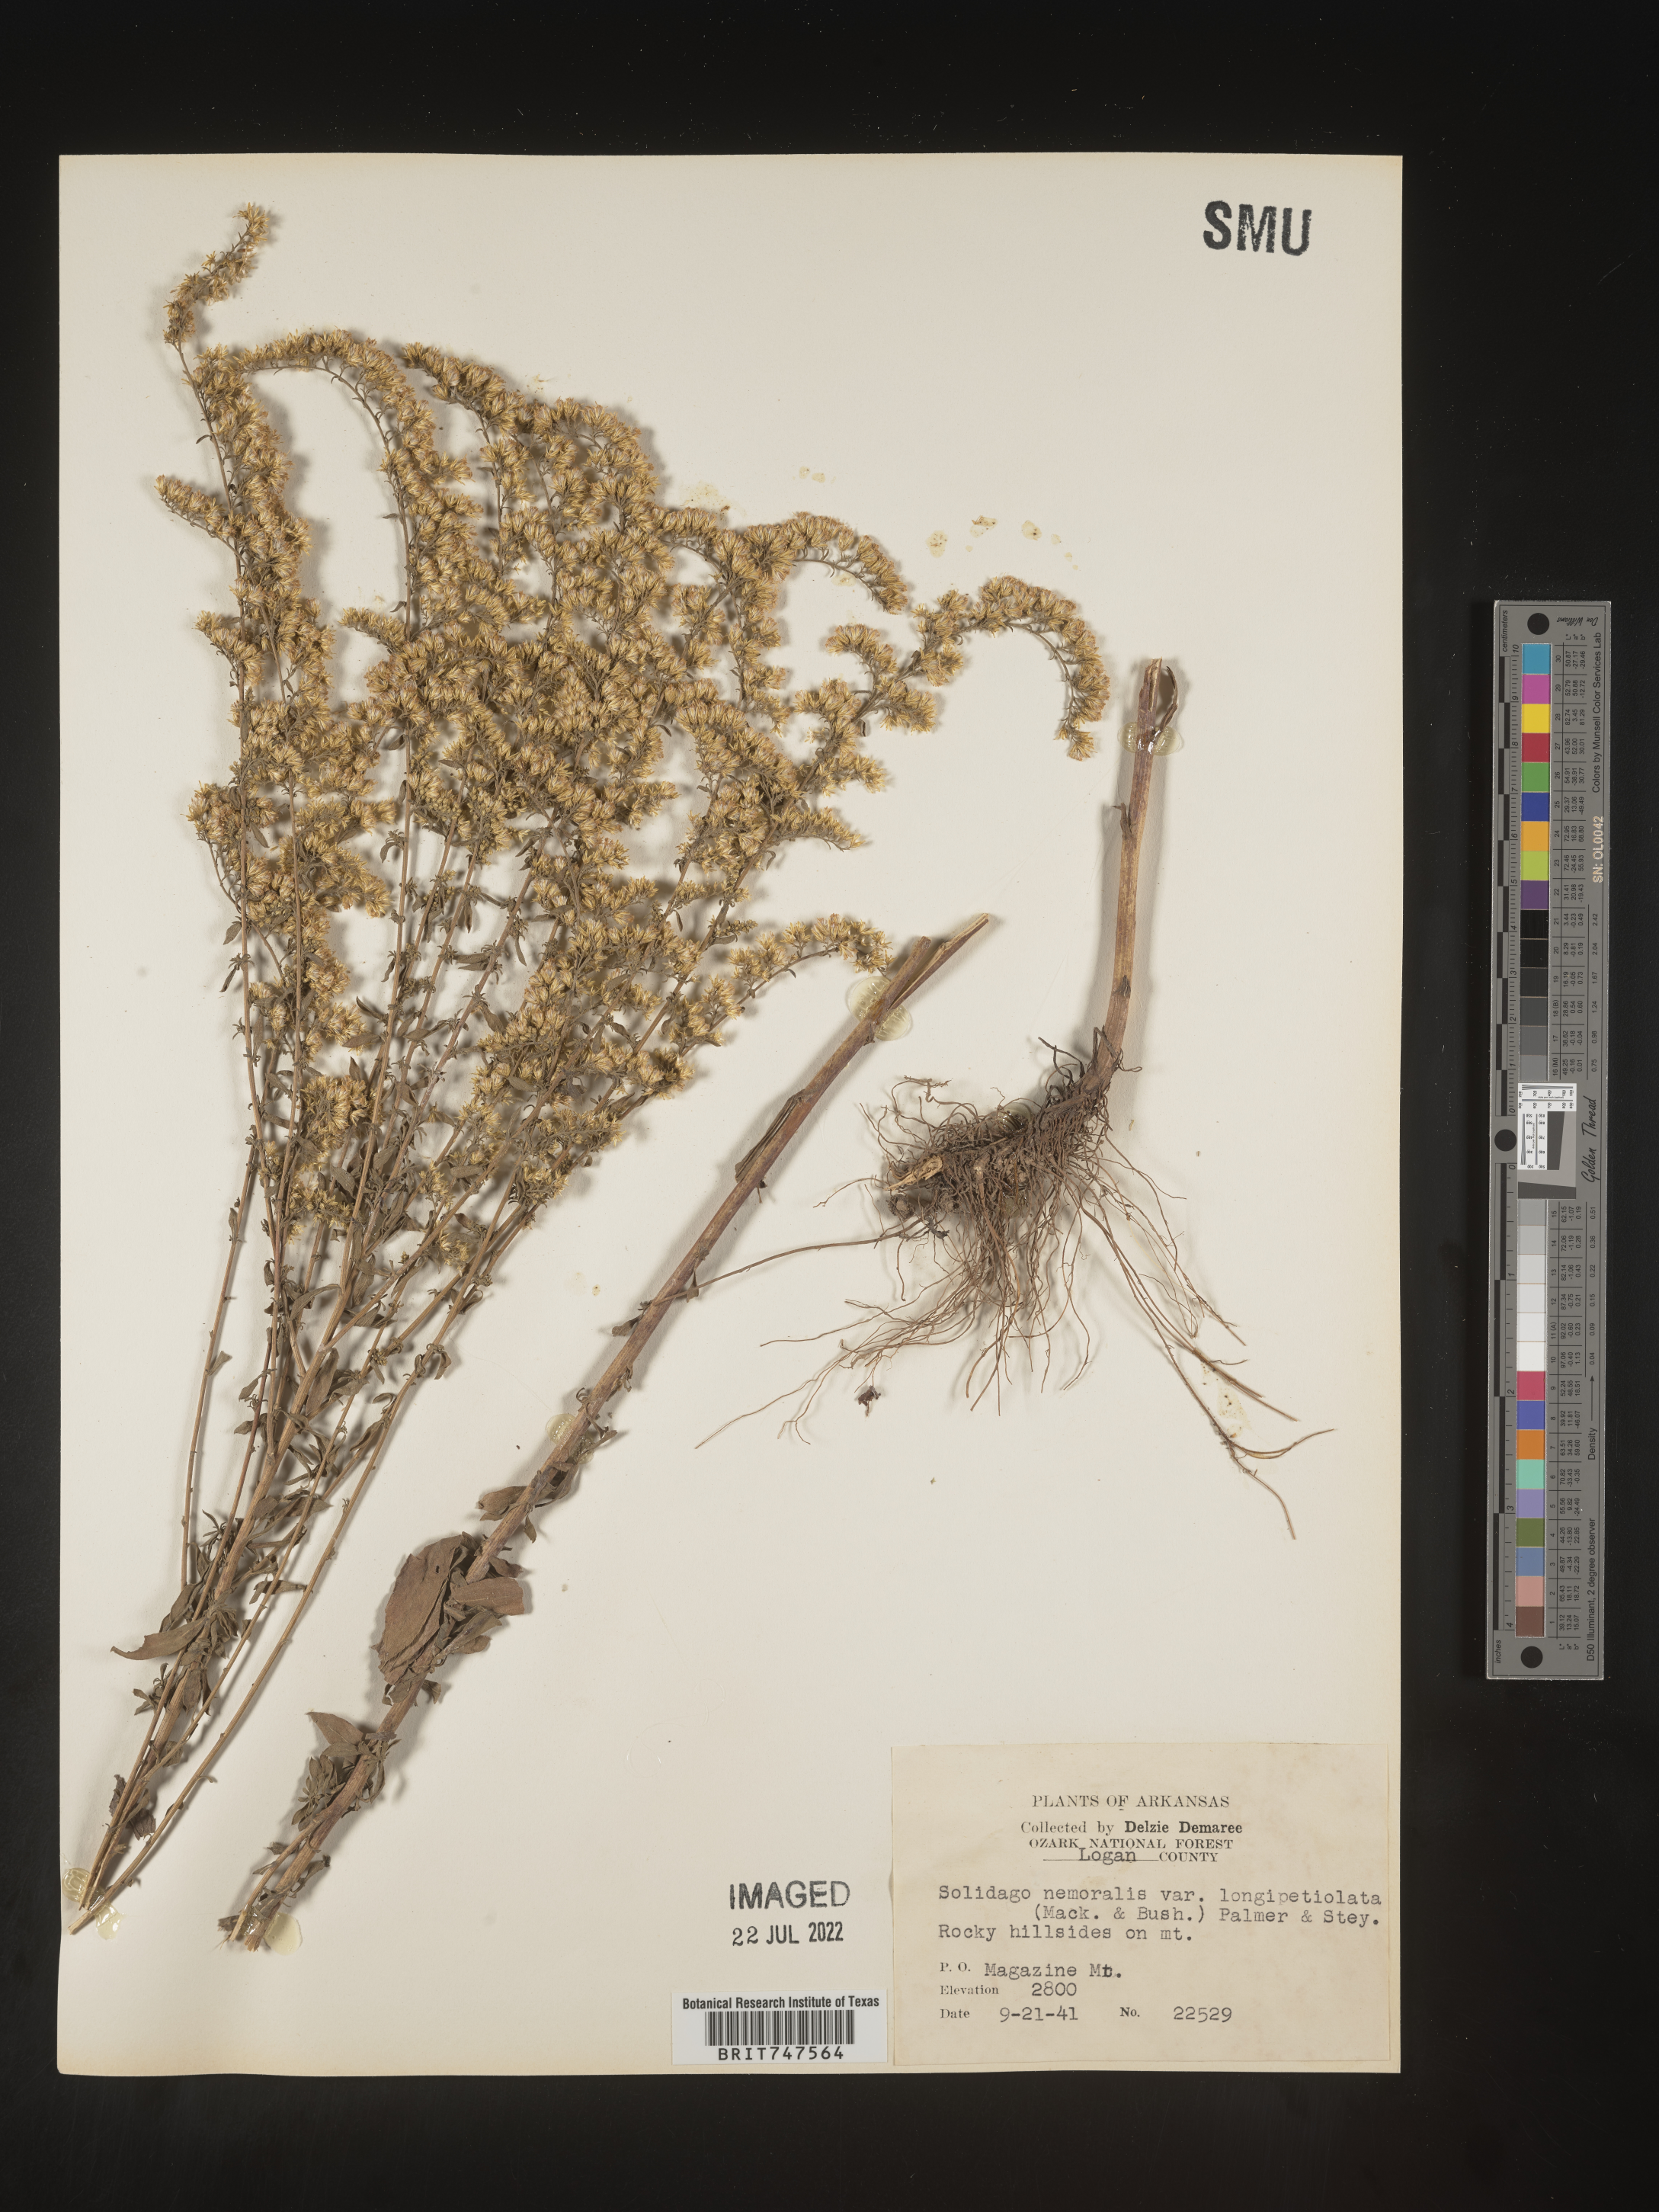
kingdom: Plantae
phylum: Tracheophyta
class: Magnoliopsida
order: Asterales
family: Asteraceae
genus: Solidago
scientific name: Solidago nemoralis
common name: Grey goldenrod
